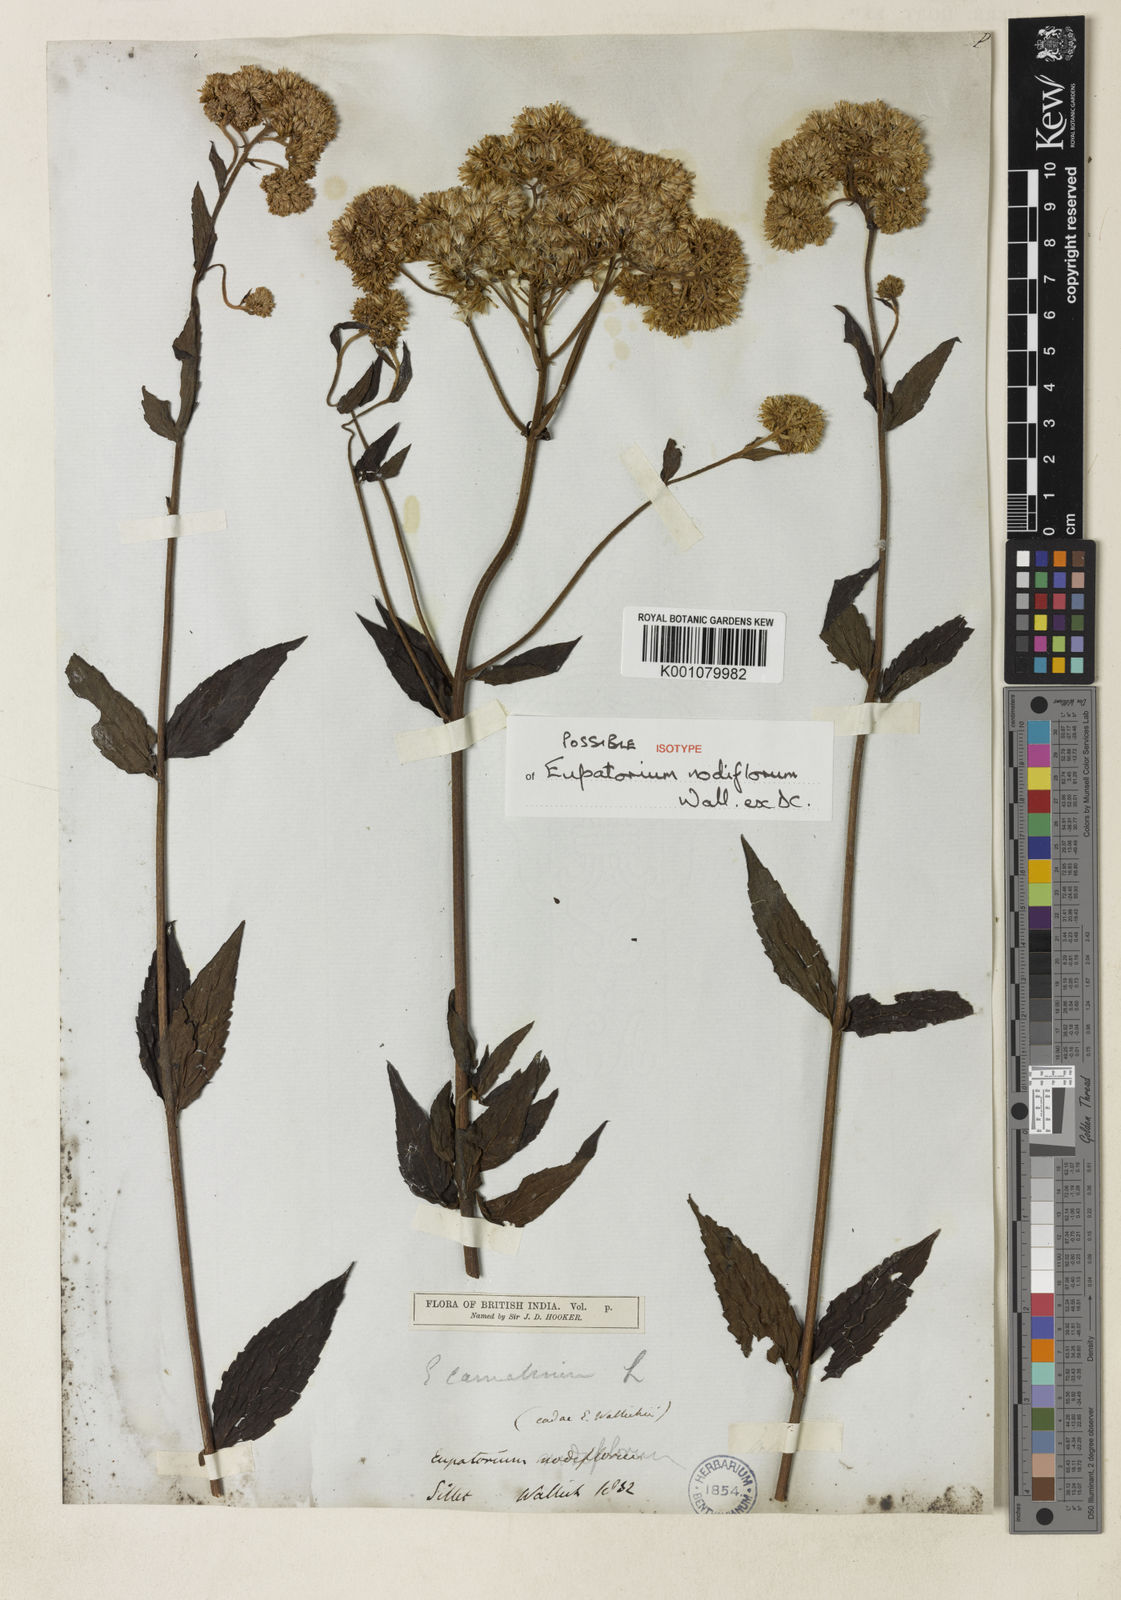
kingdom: Plantae
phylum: Tracheophyta
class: Magnoliopsida
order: Asterales
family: Asteraceae
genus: Eupatorium
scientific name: Eupatorium cannabinum
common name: Hemp-agrimony
